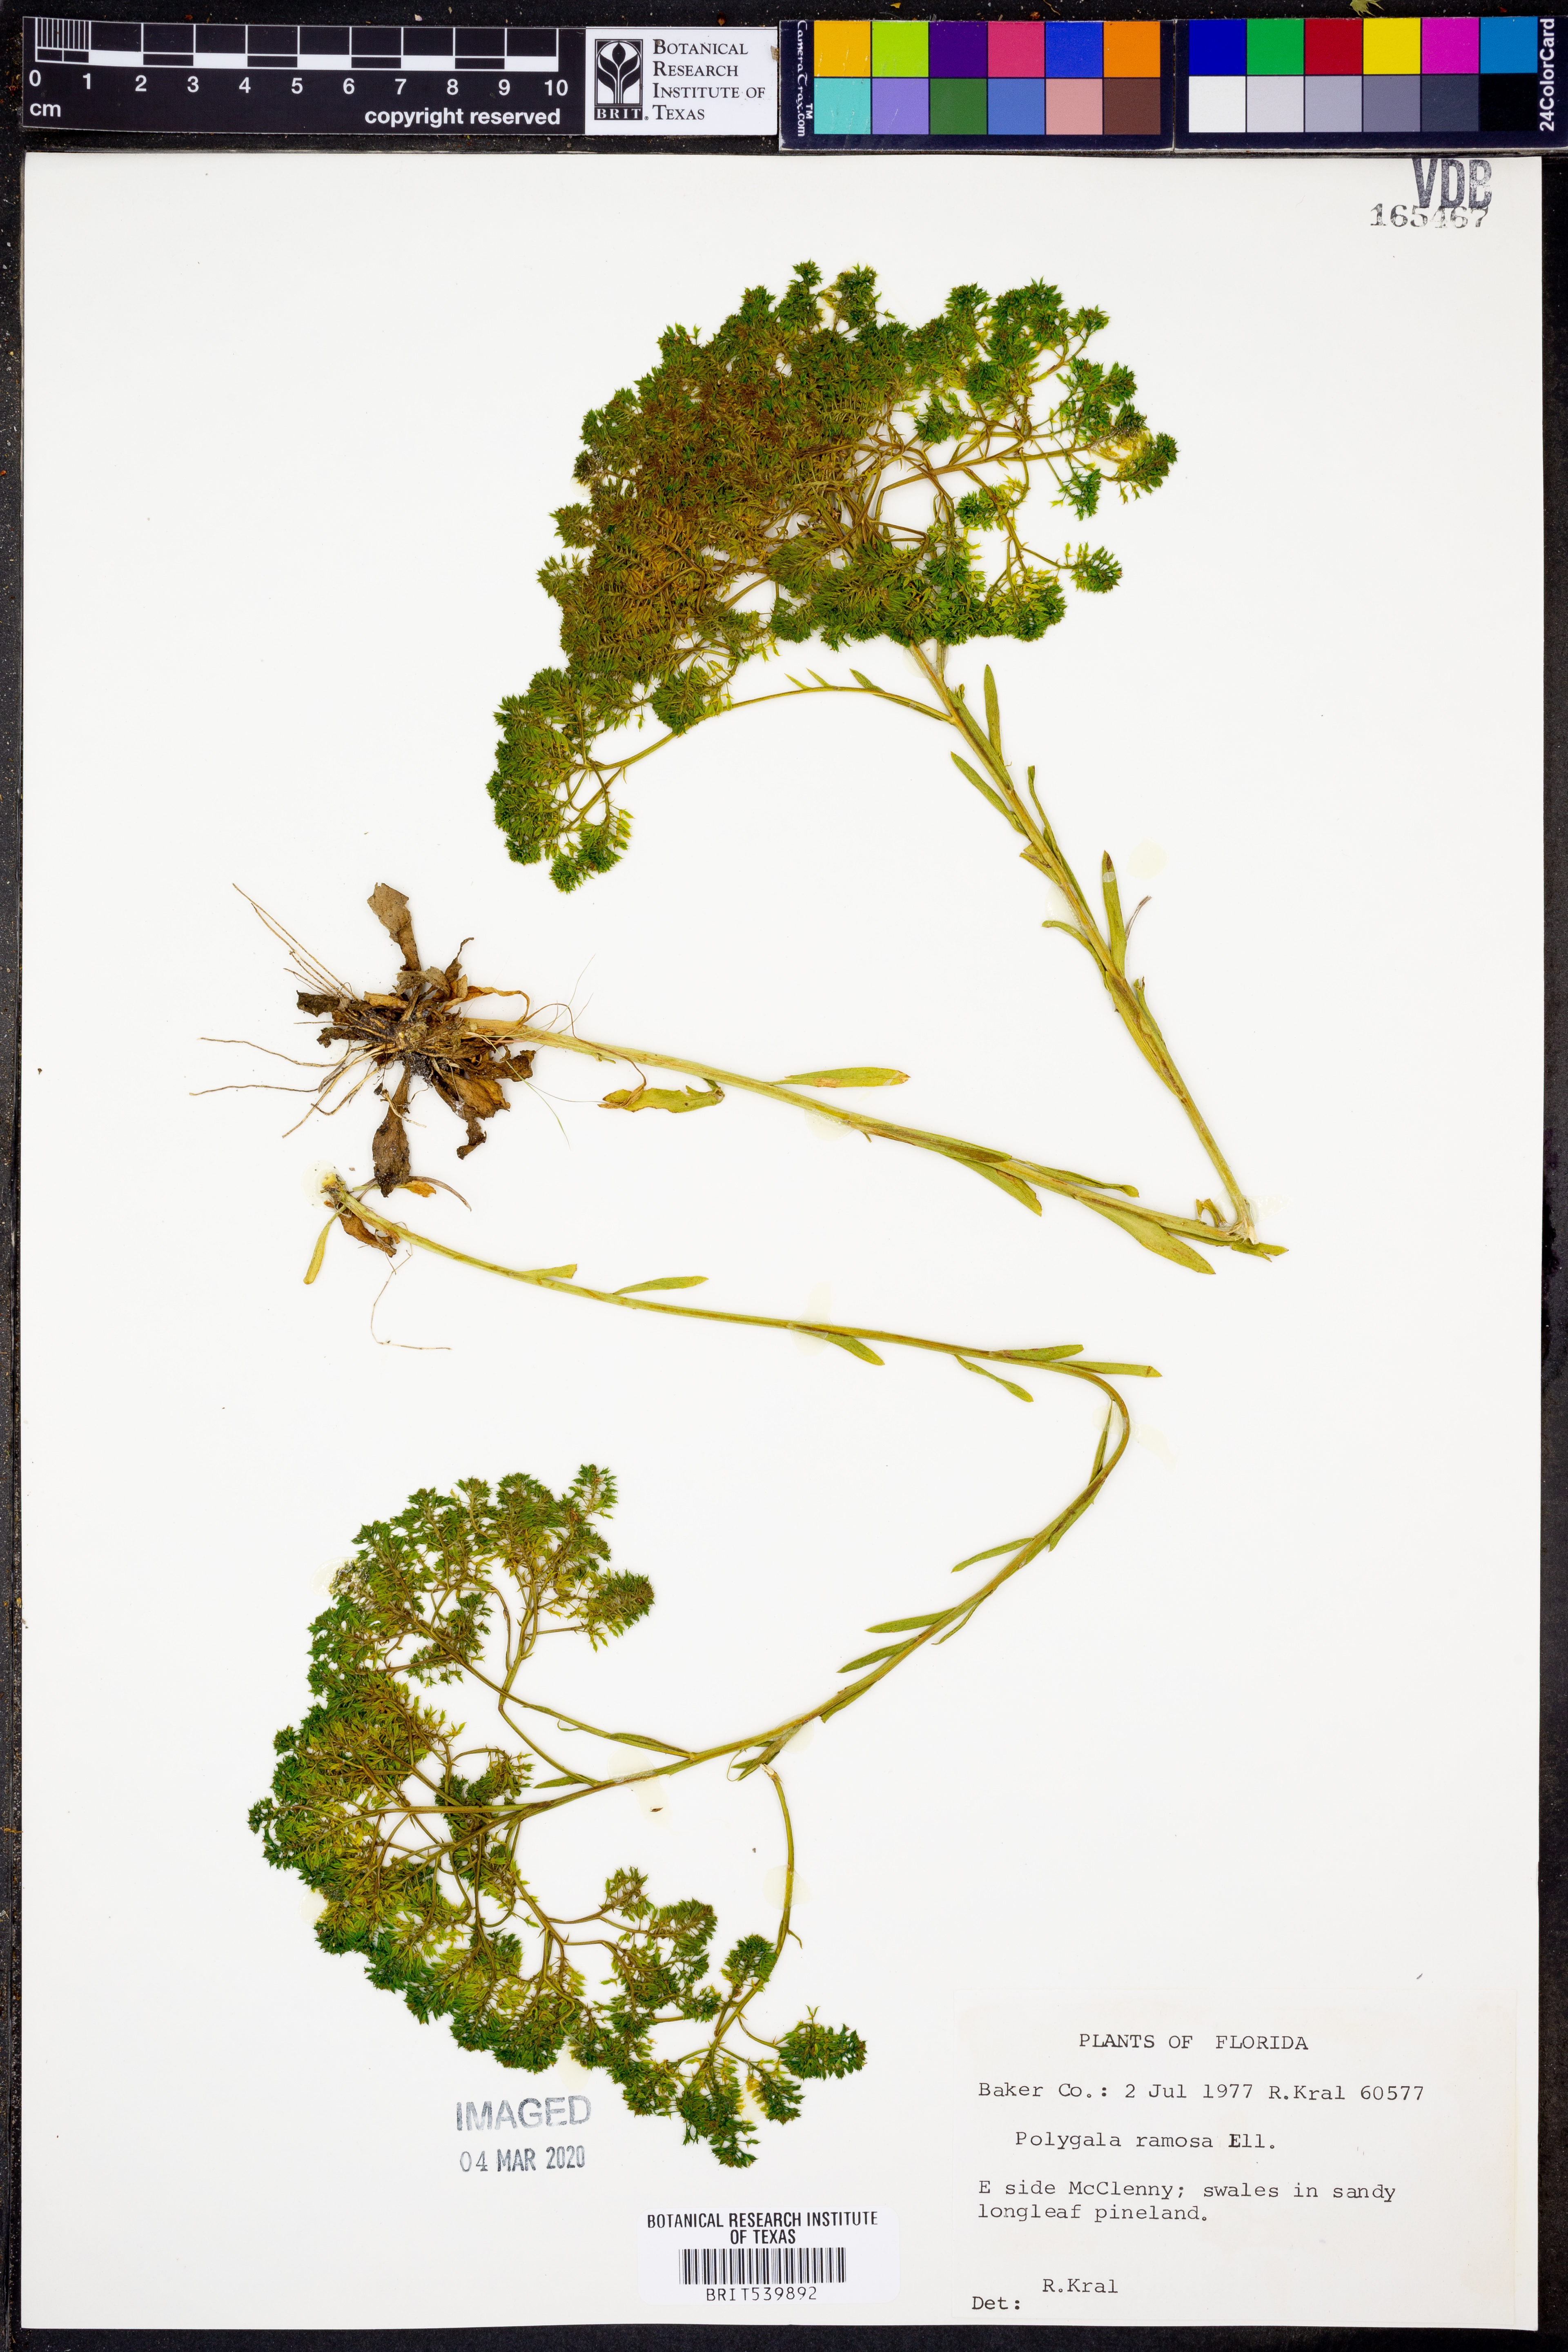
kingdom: Plantae
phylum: Tracheophyta
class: Magnoliopsida
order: Fabales
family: Polygalaceae
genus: Polygala
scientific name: Polygala ramosa
